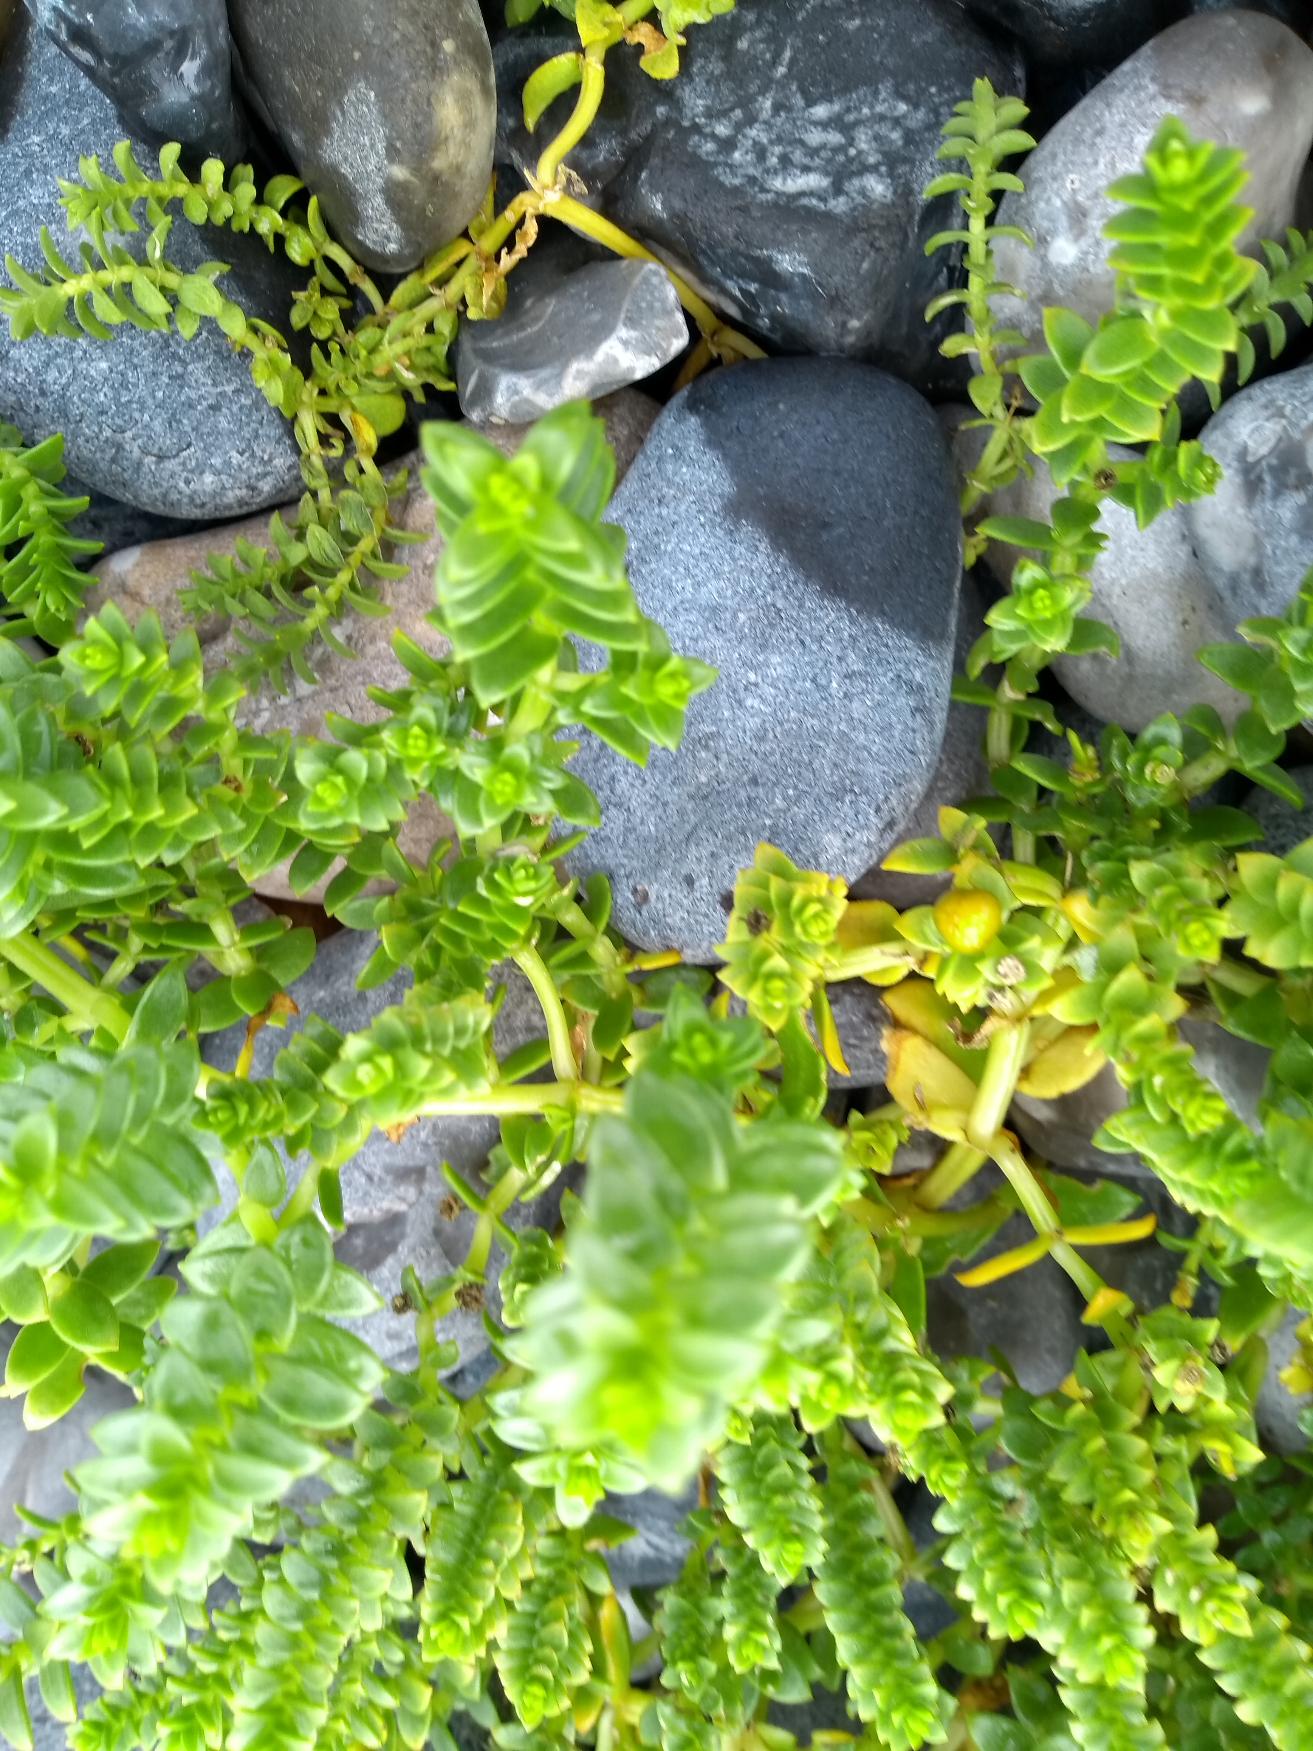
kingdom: Plantae
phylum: Tracheophyta
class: Magnoliopsida
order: Caryophyllales
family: Caryophyllaceae
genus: Honckenya
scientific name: Honckenya peploides
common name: Strandarve
